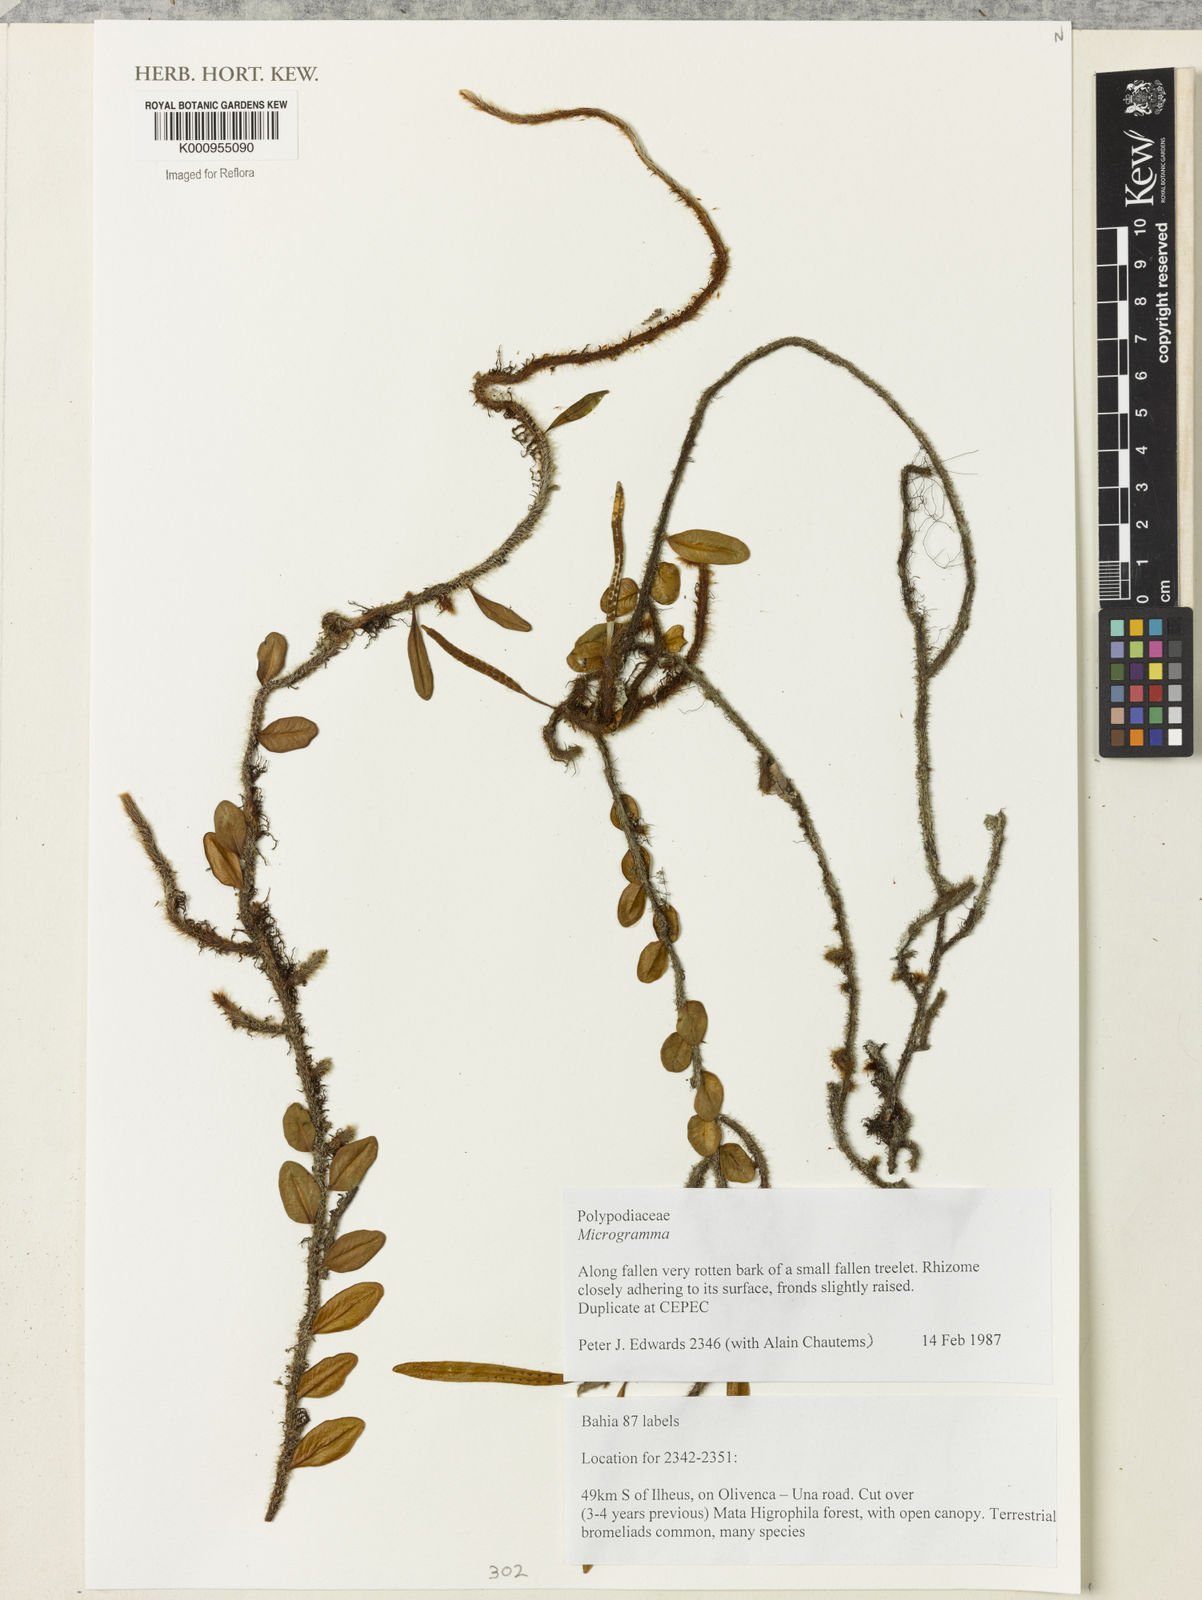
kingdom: Plantae
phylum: Tracheophyta
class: Polypodiopsida
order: Polypodiales
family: Polypodiaceae
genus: Microgramma
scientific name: Microgramma
